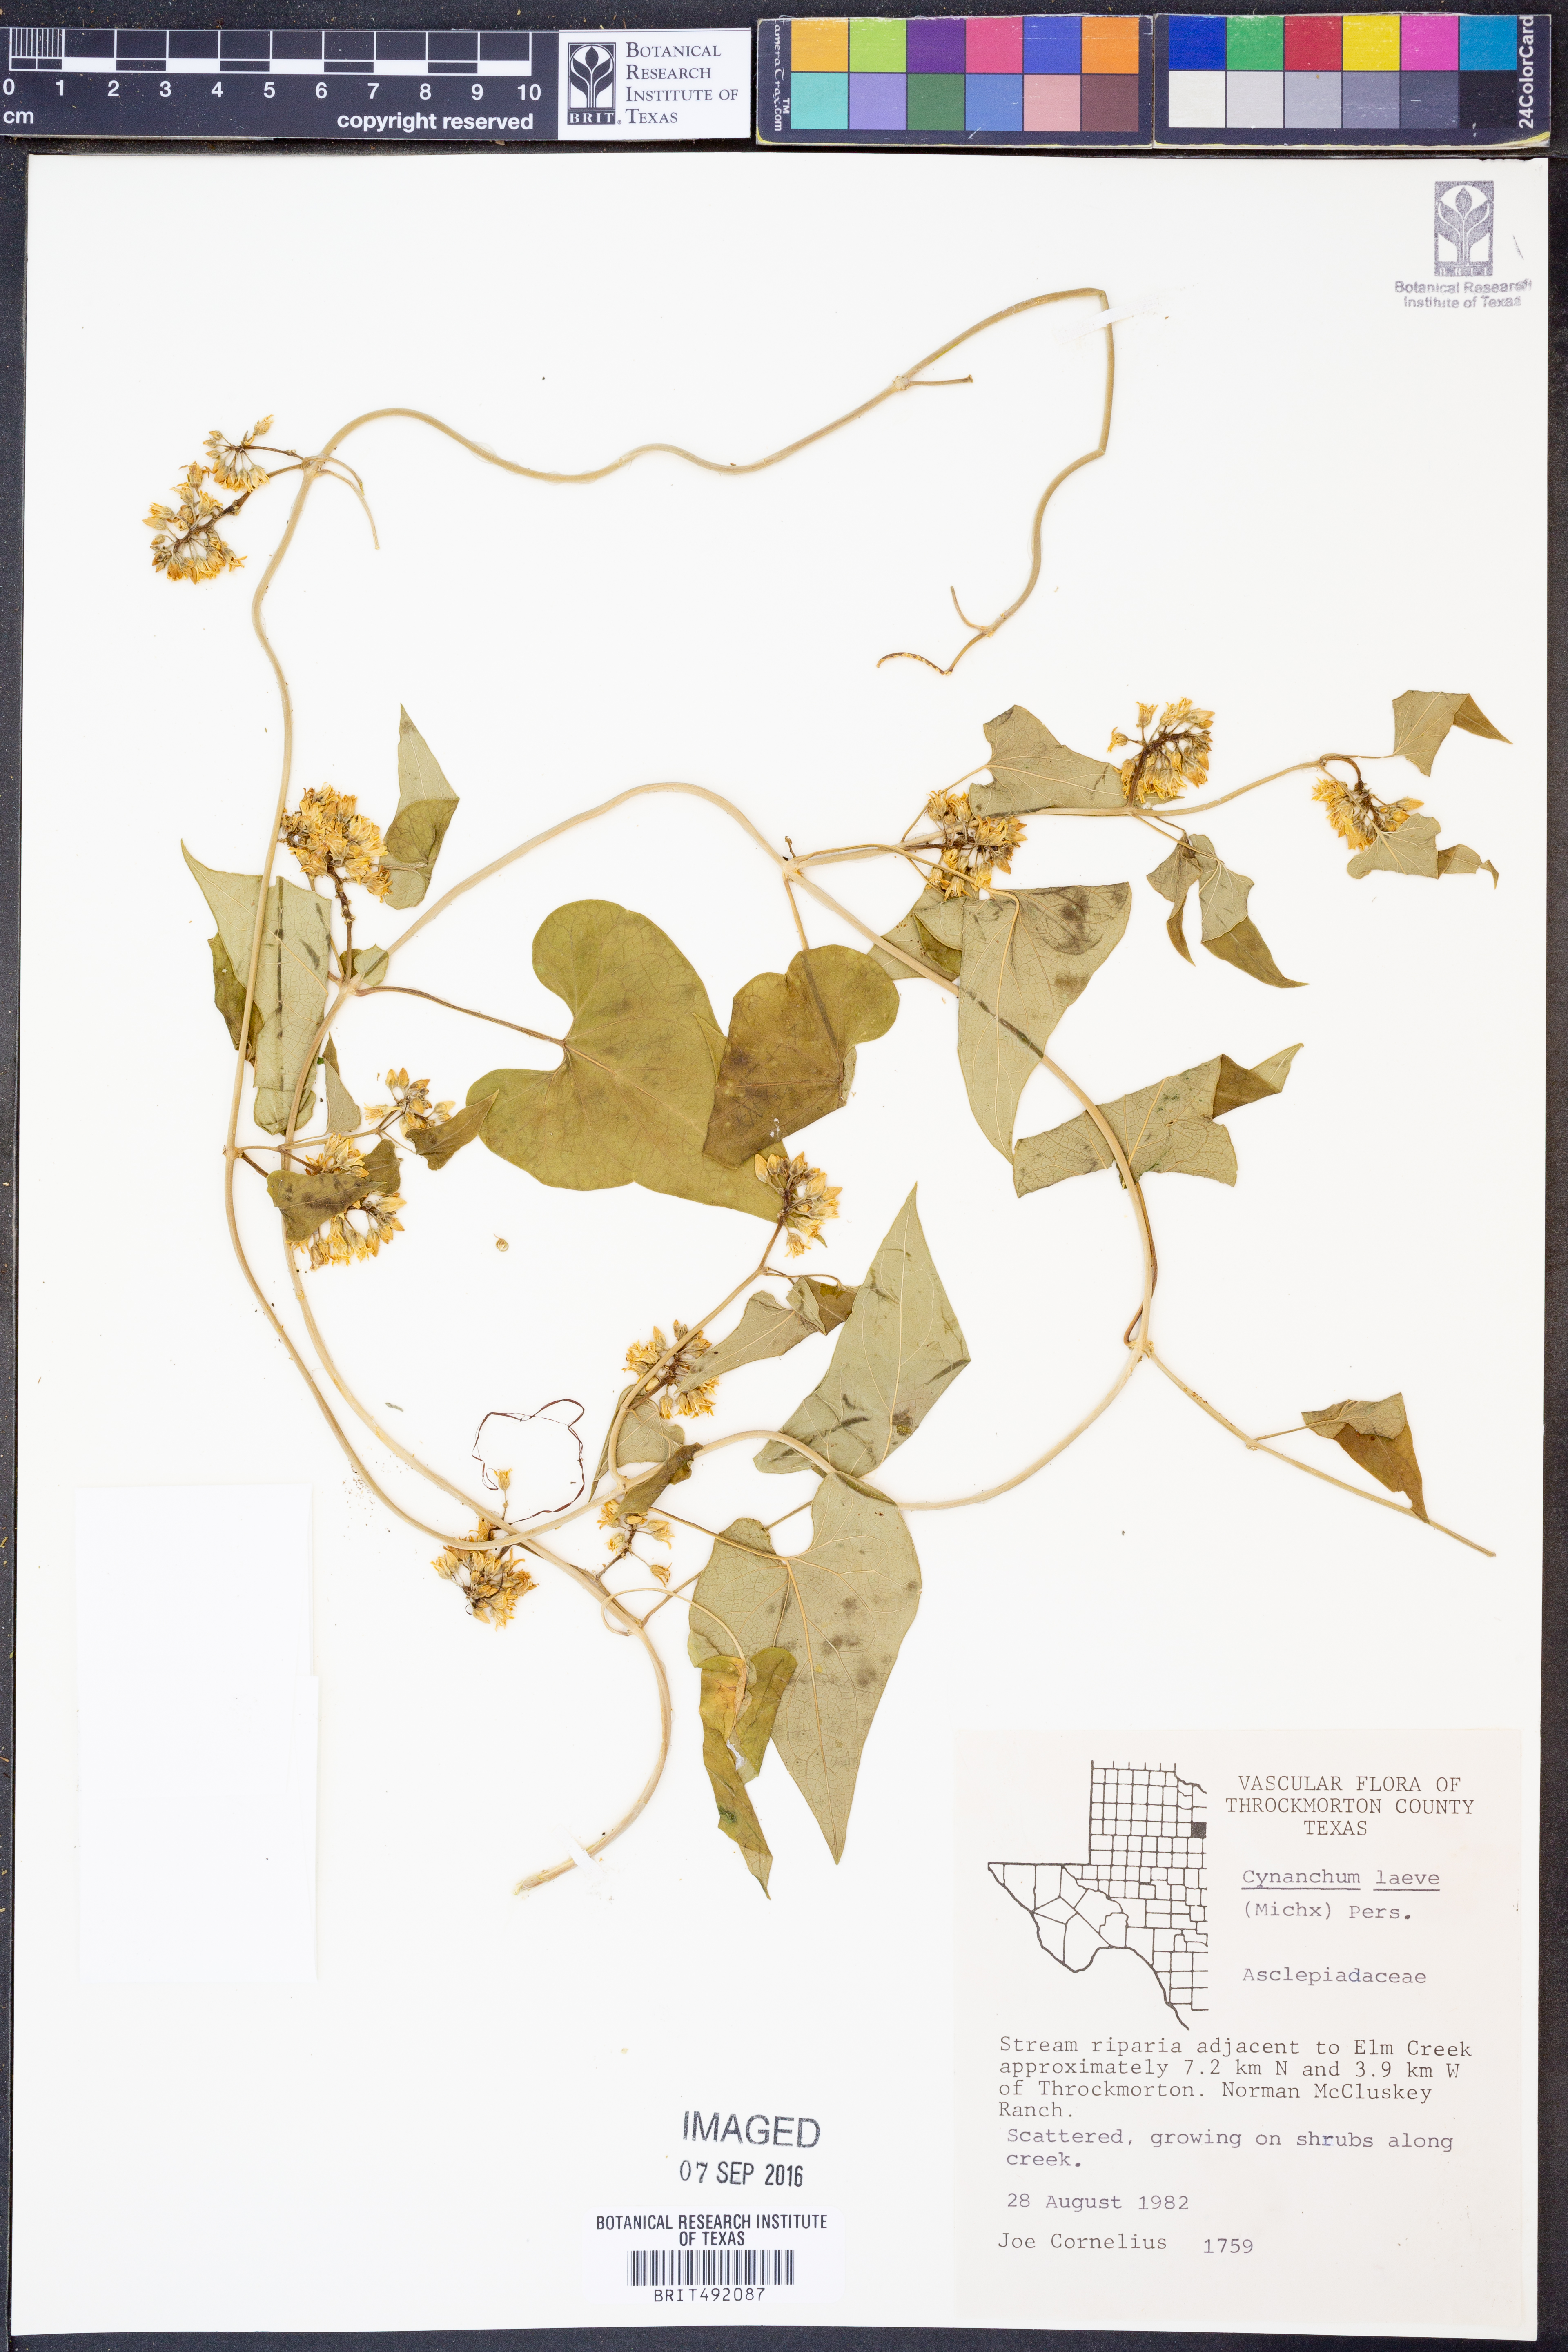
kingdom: Plantae
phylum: Tracheophyta
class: Magnoliopsida
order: Gentianales
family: Apocynaceae
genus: Cynanchum
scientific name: Cynanchum laeve
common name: Sandvine
